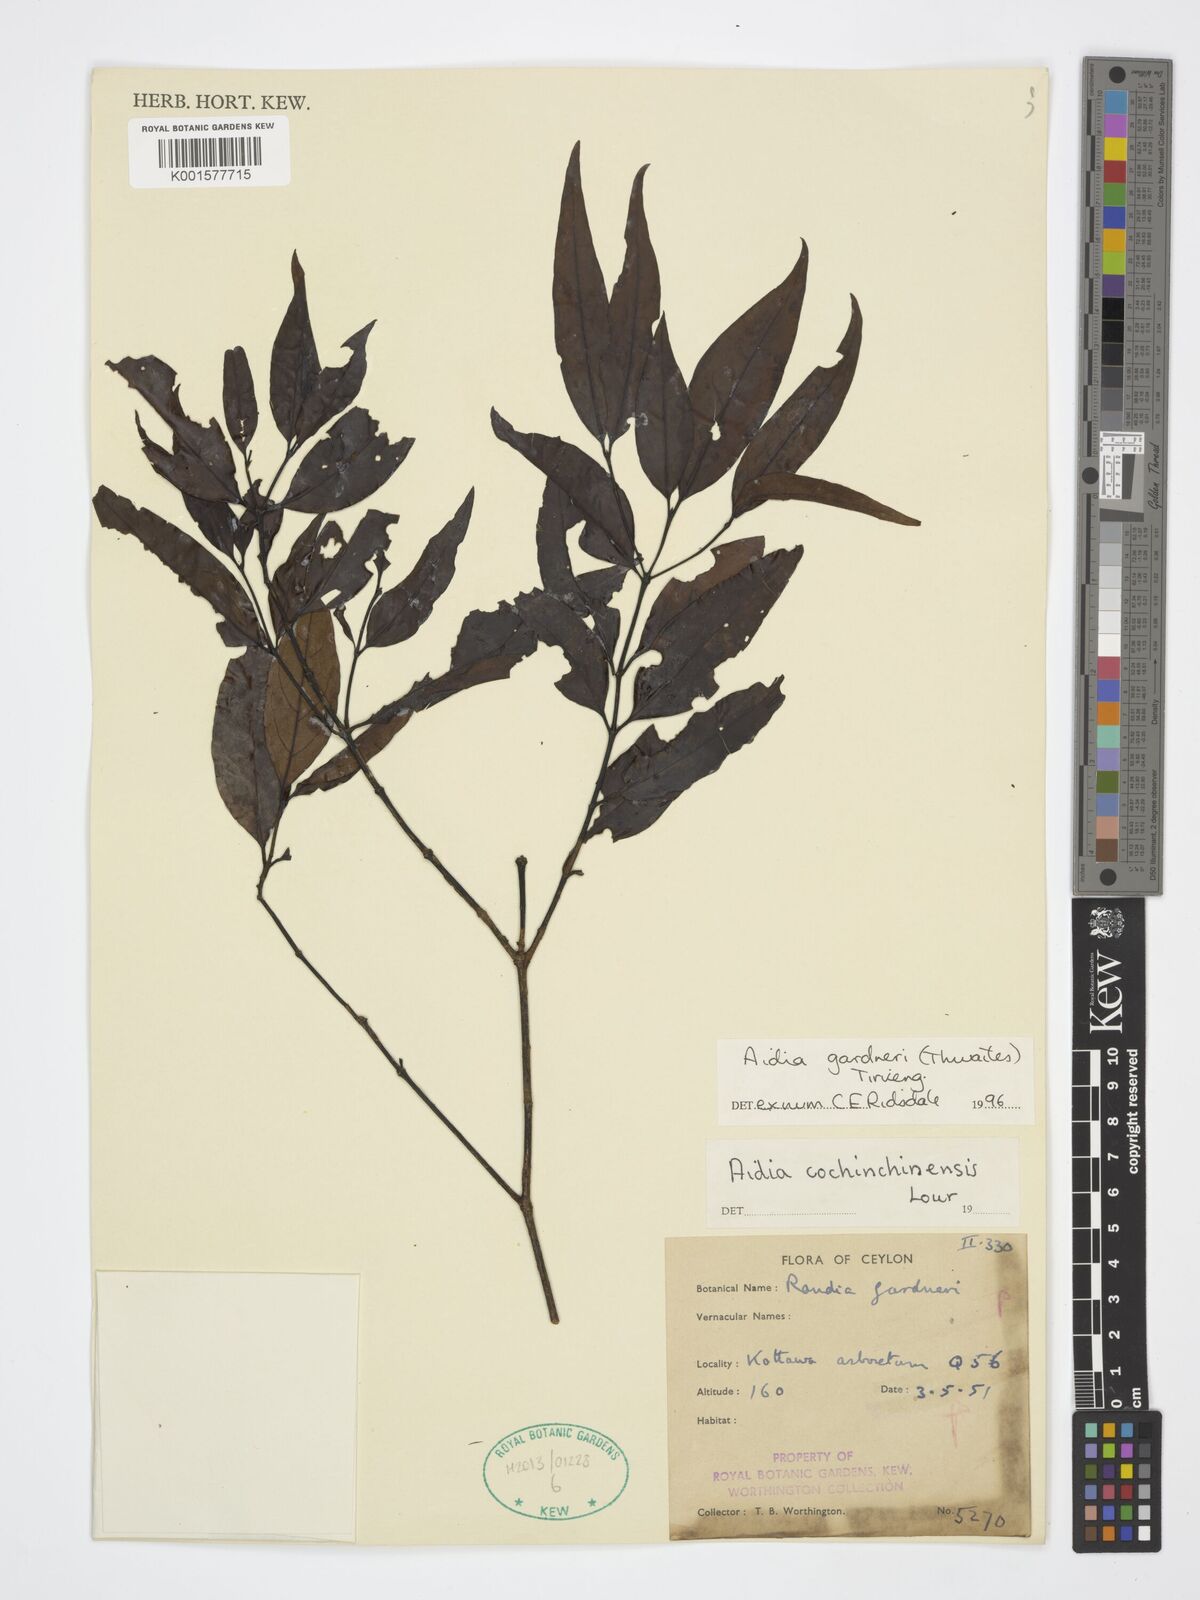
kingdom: Plantae
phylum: Tracheophyta
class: Magnoliopsida
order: Gentianales
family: Rubiaceae
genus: Aidia
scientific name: Aidia gardneri
